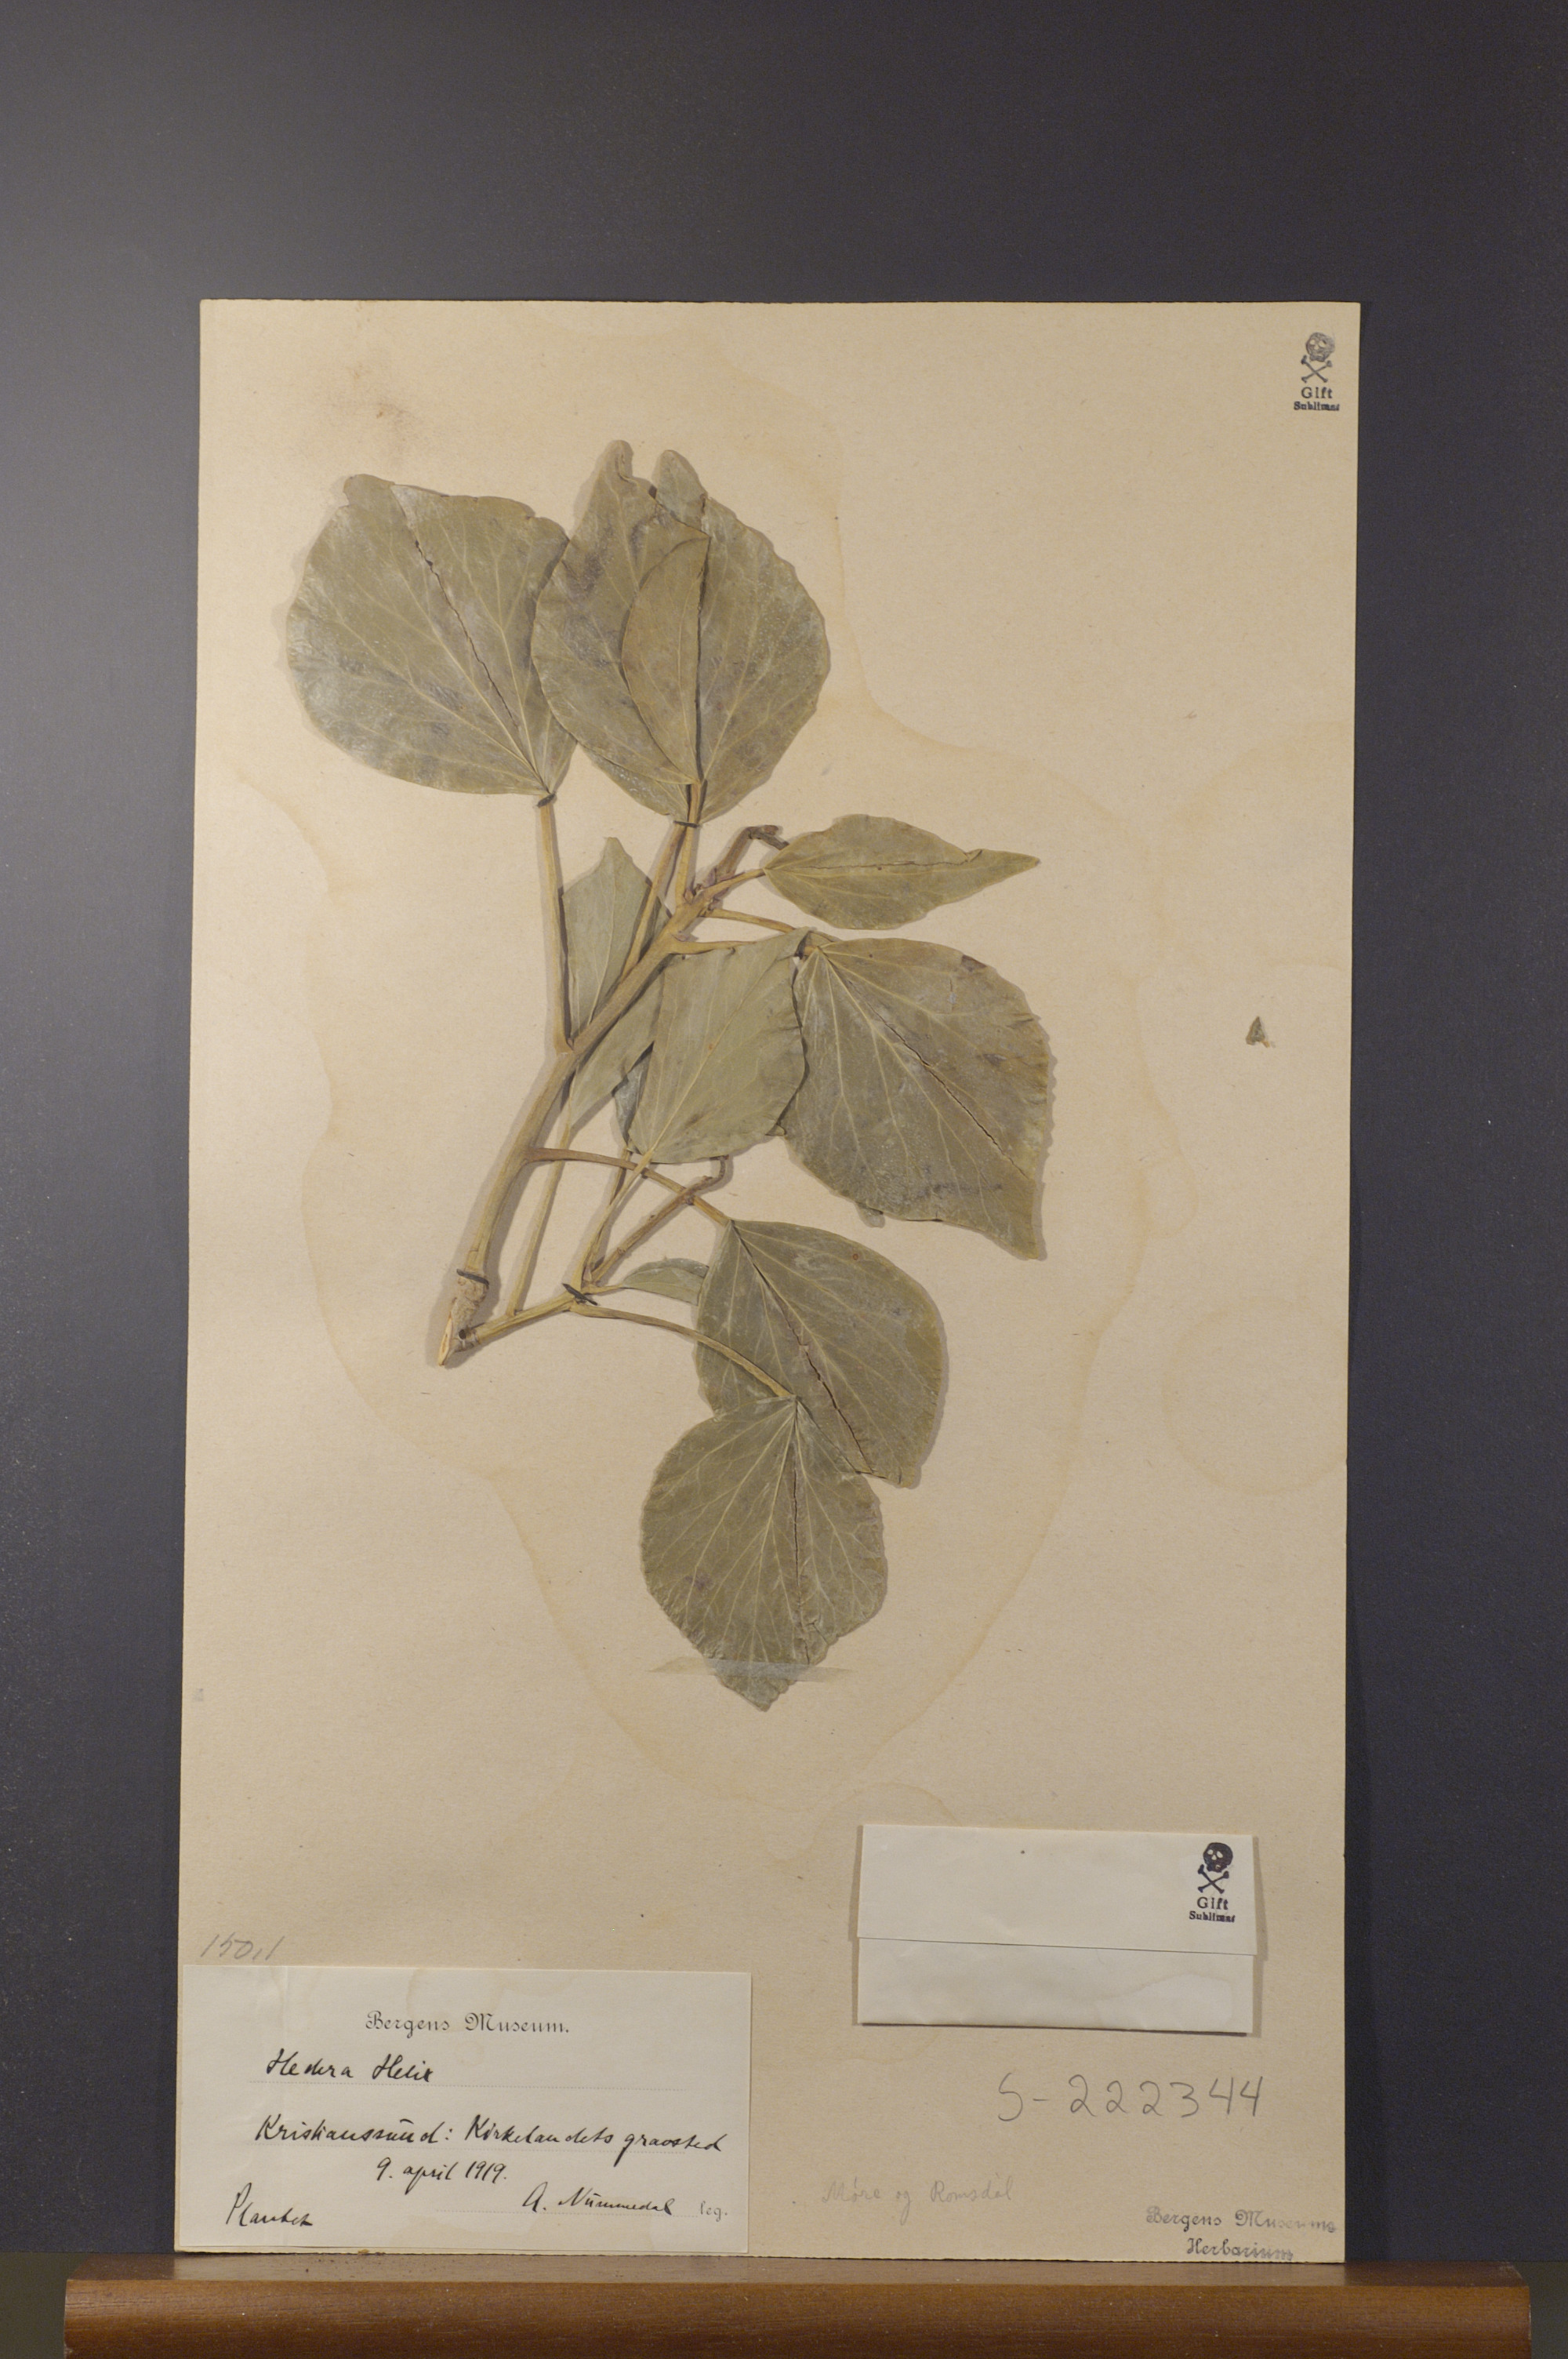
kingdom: Plantae
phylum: Tracheophyta
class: Magnoliopsida
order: Apiales
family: Araliaceae
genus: Hedera
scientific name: Hedera helix
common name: Ivy
